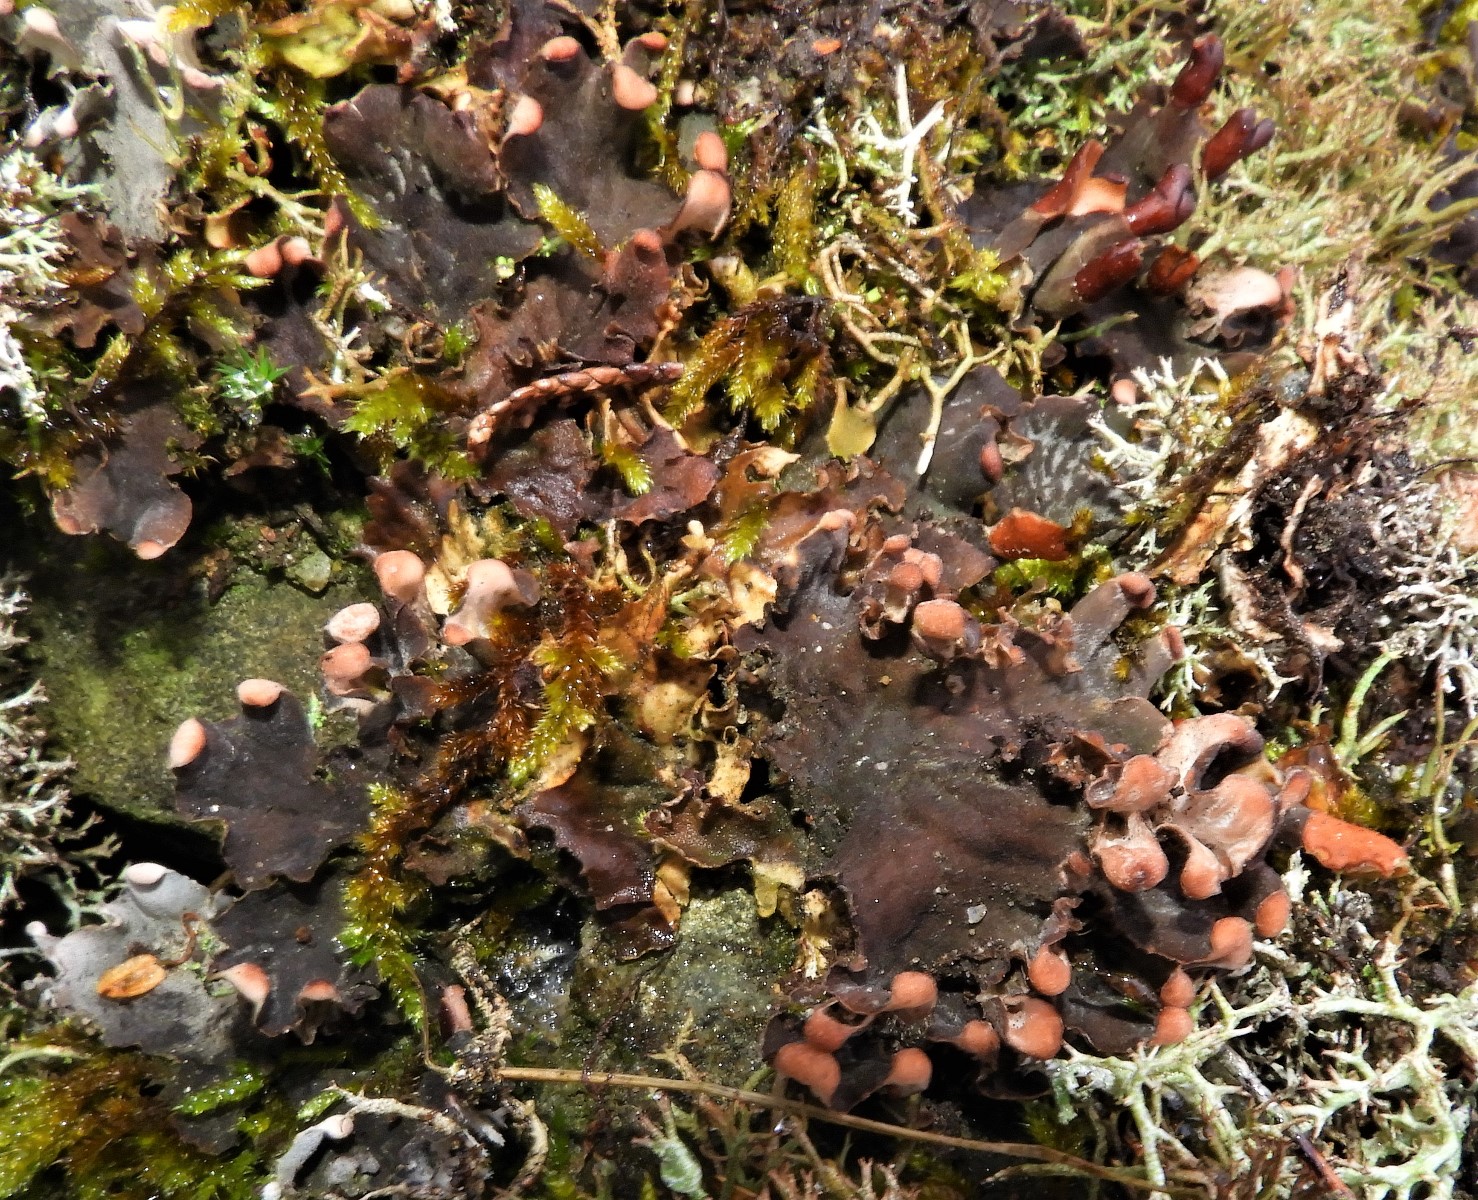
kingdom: Fungi
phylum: Ascomycota
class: Lecanoromycetes
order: Peltigerales
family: Peltigeraceae
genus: Peltigera
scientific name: Peltigera didactyla
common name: liden skjoldlav
